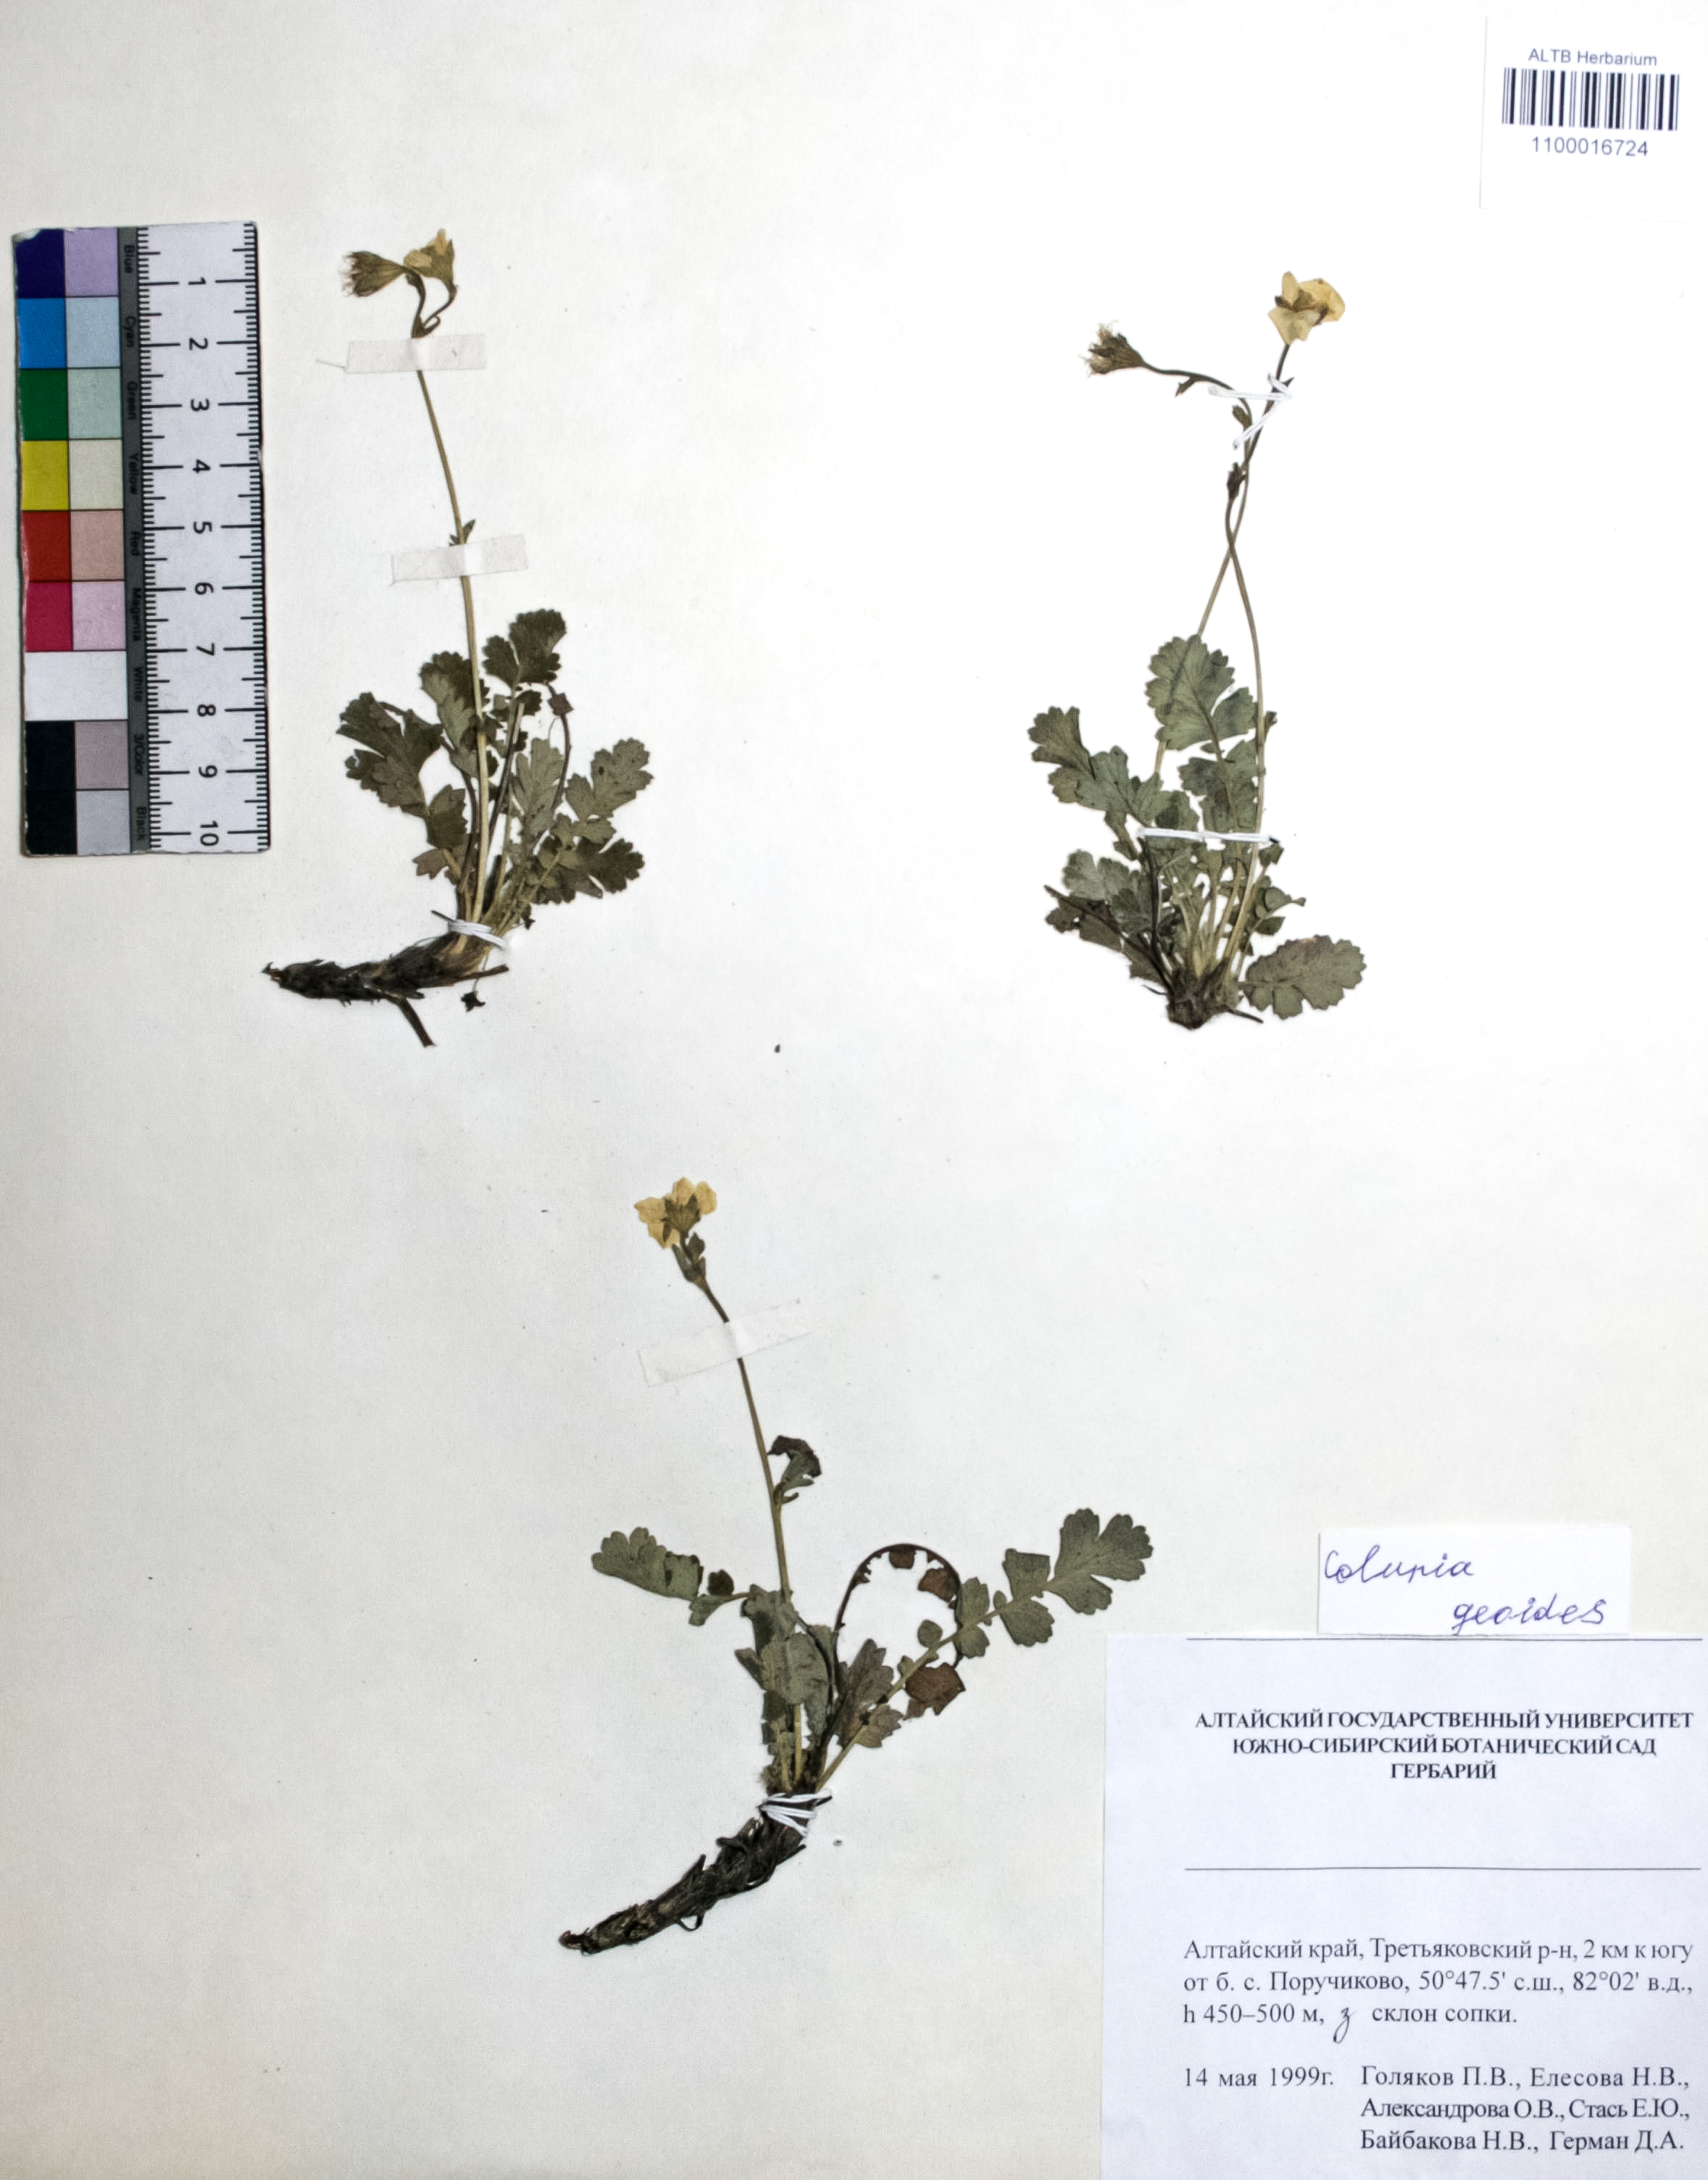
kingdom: Plantae
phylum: Tracheophyta
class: Magnoliopsida
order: Rosales
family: Rosaceae
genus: Geum
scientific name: Geum geoides
